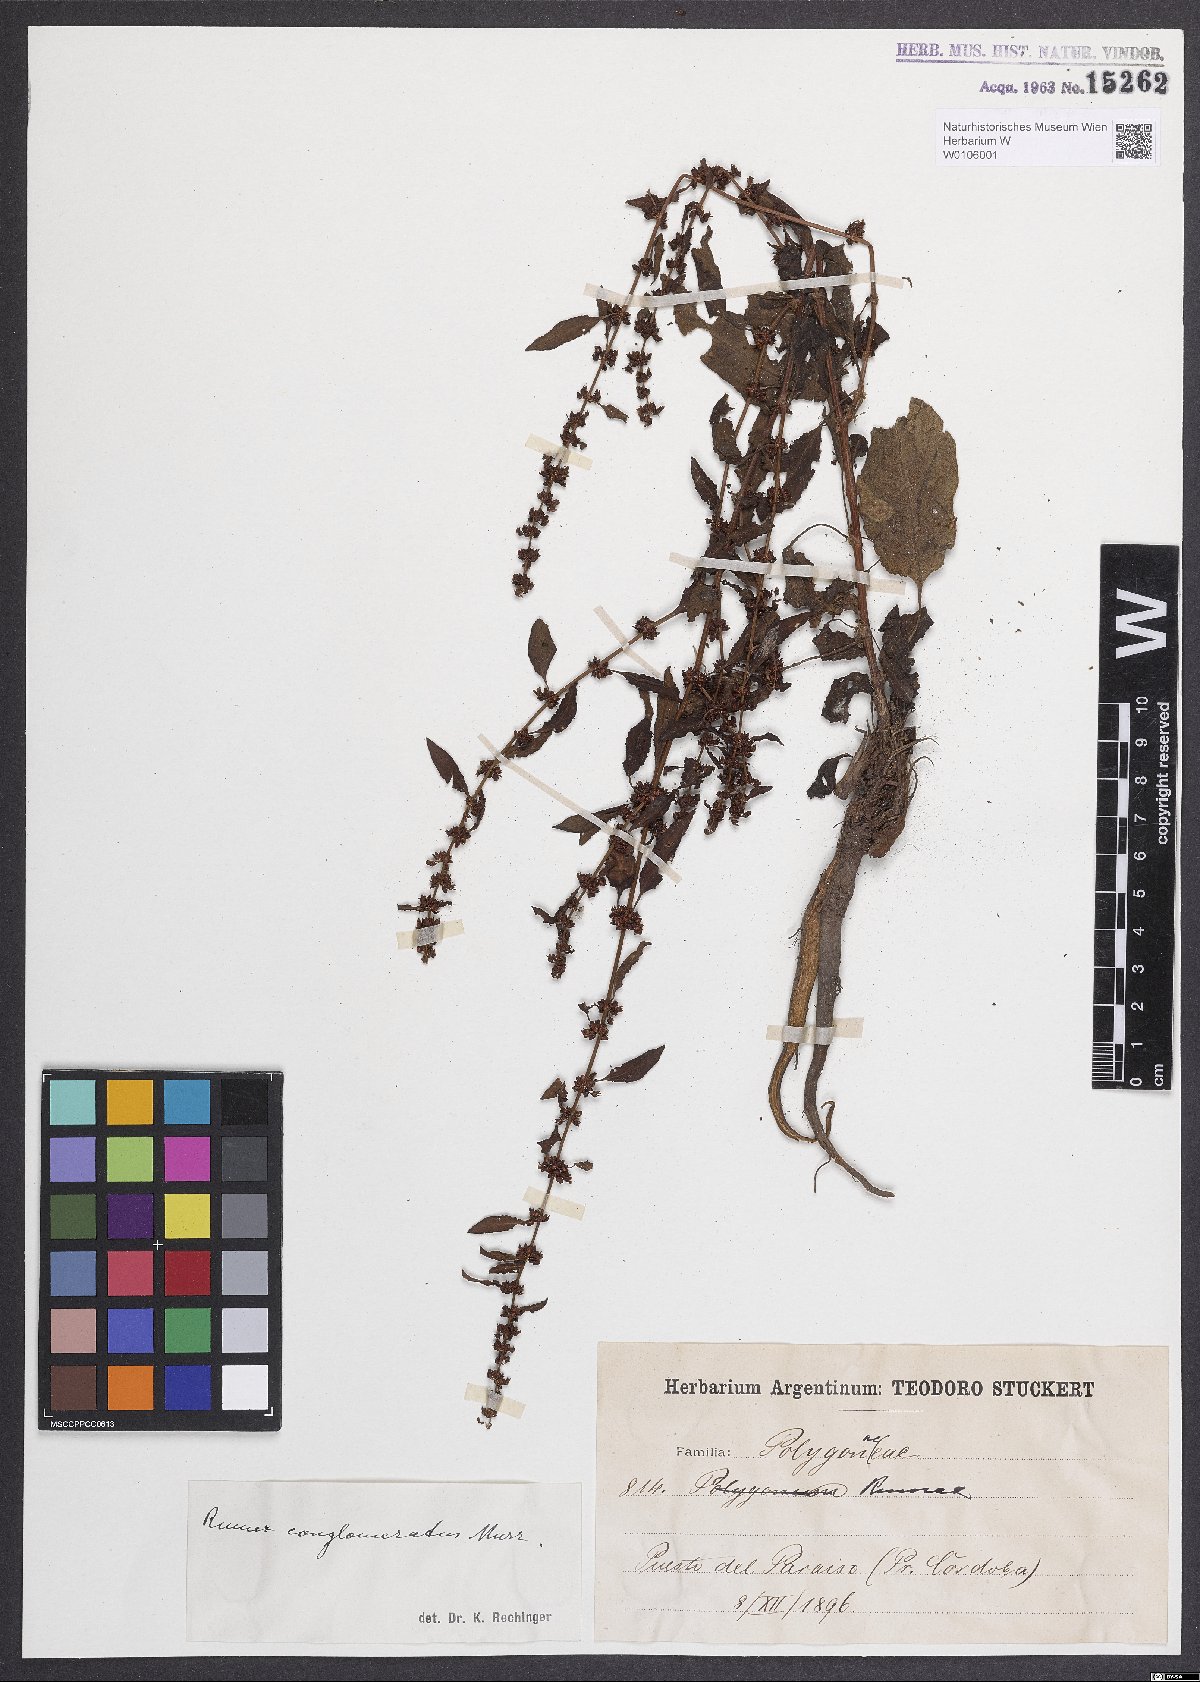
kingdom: Plantae
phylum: Tracheophyta
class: Magnoliopsida
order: Caryophyllales
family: Polygonaceae
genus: Rumex
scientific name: Rumex conglomeratus
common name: Clustered dock
